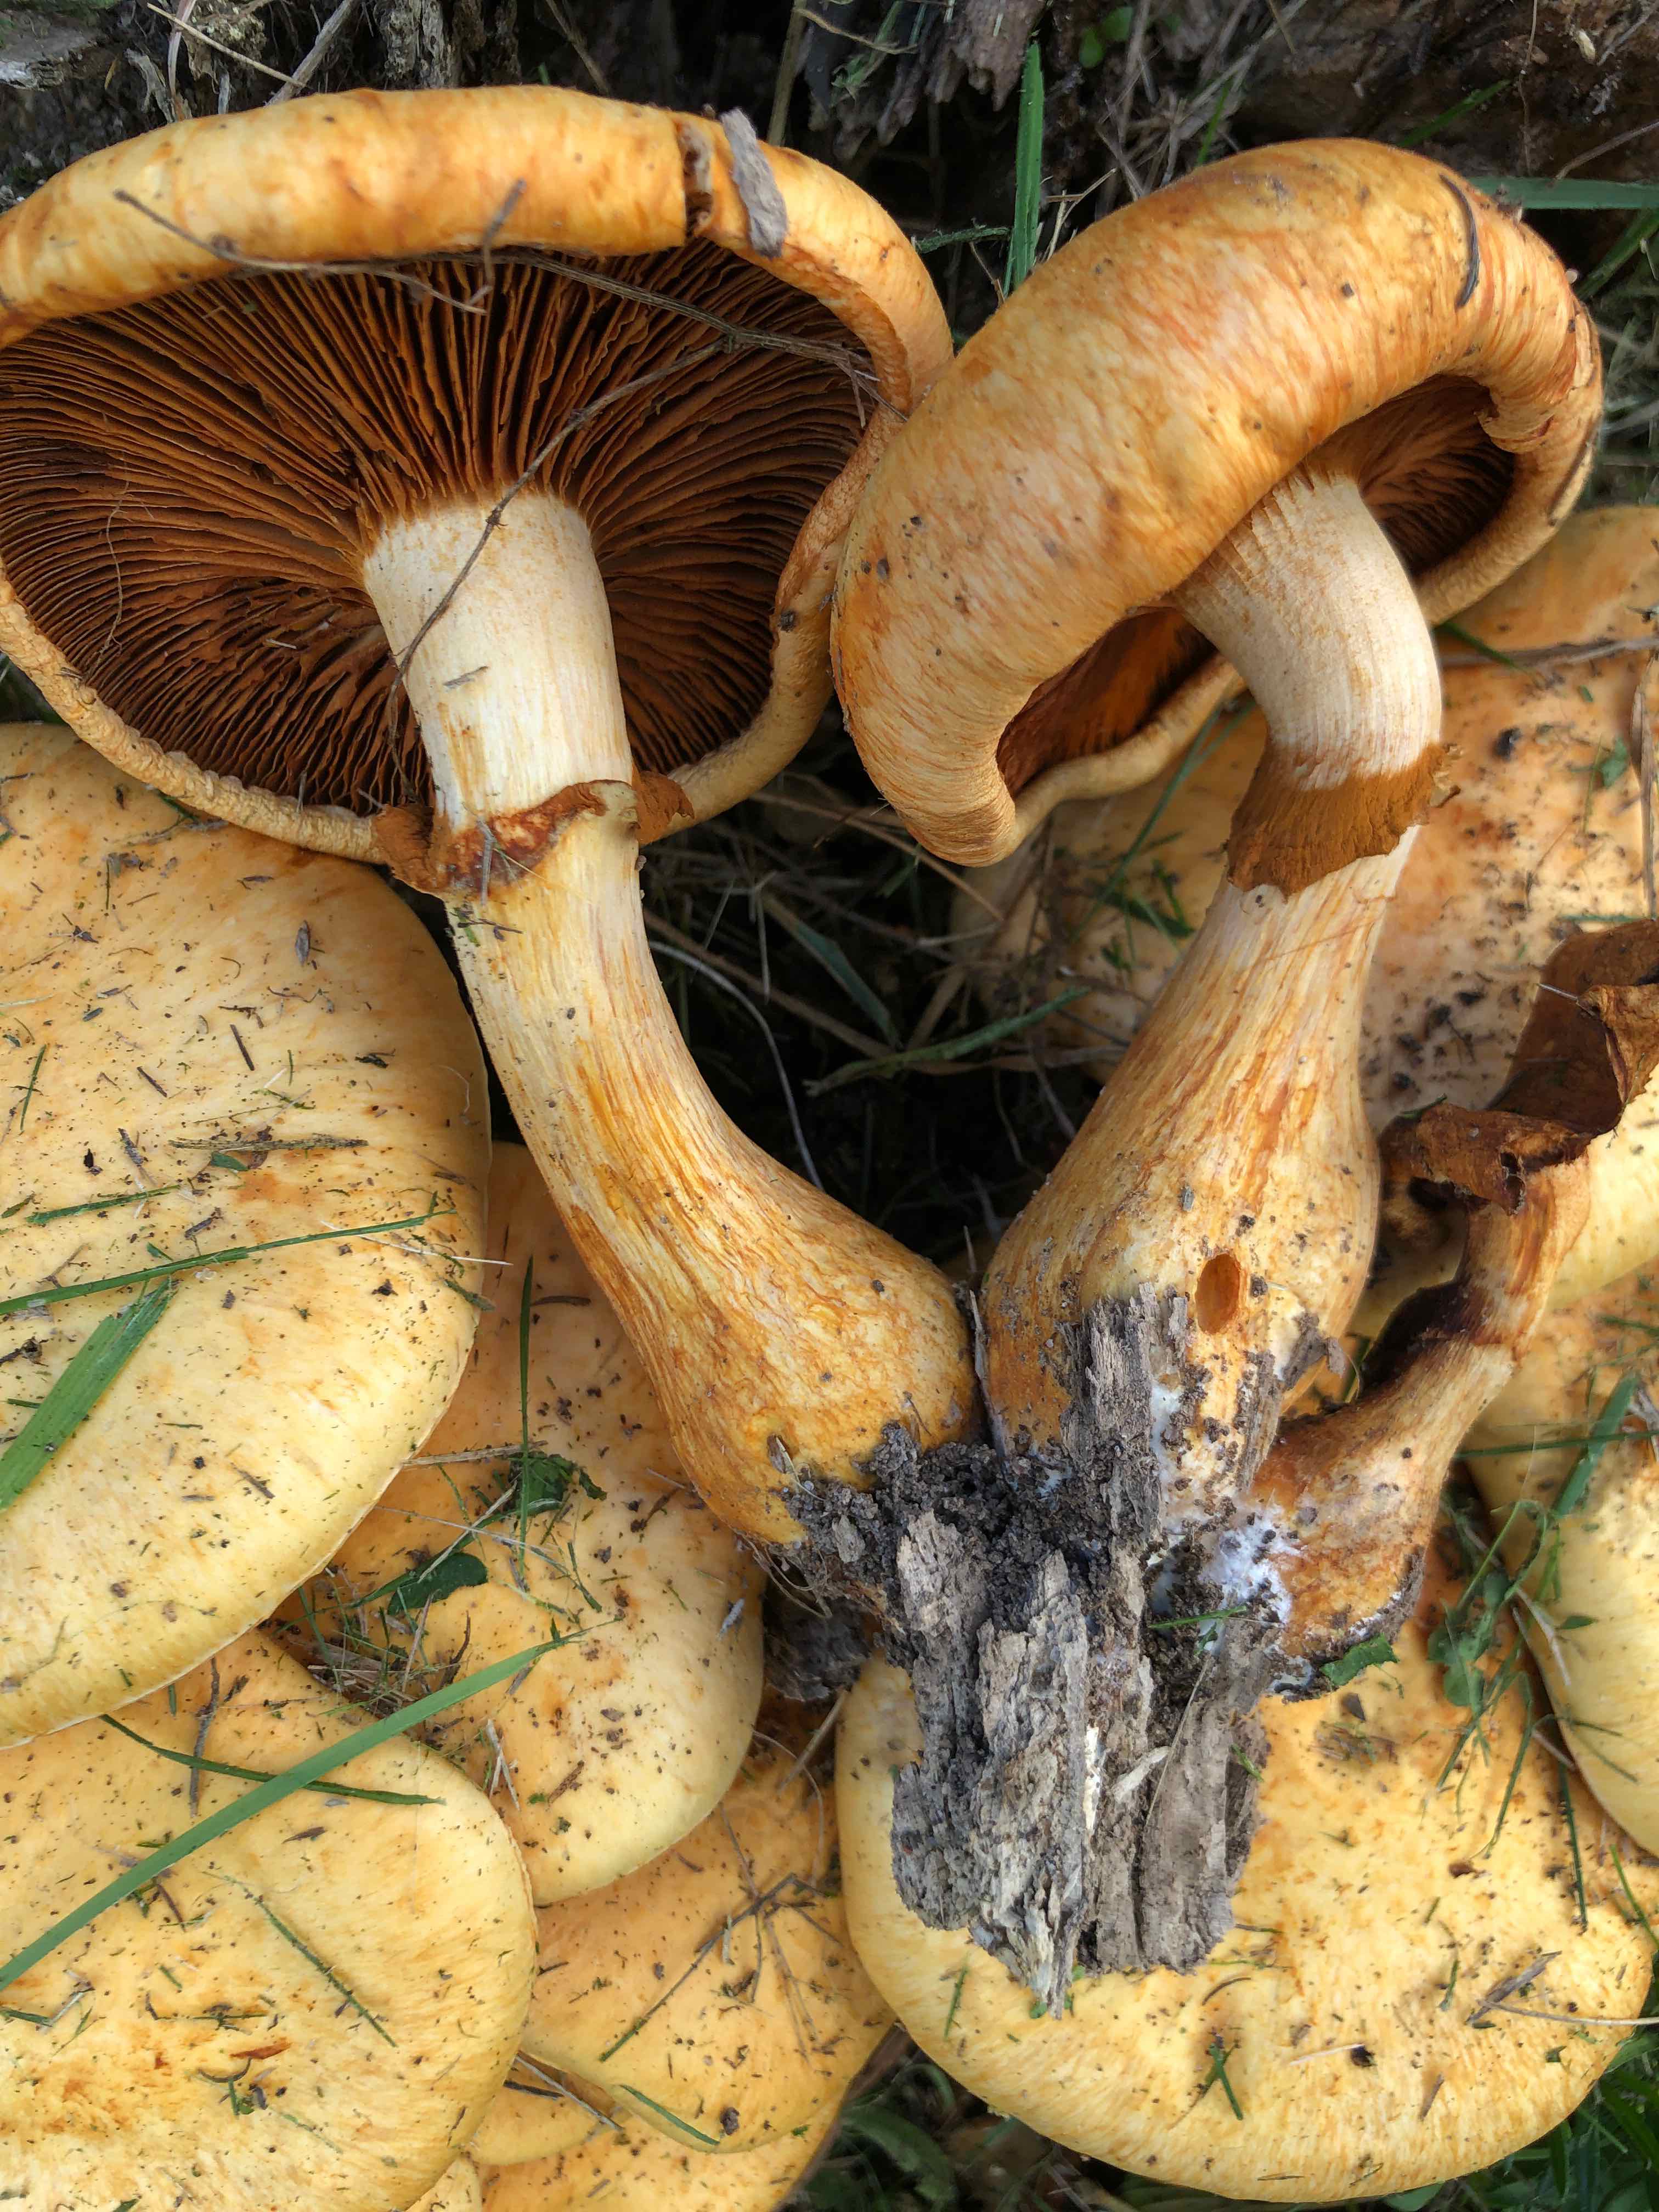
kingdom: Fungi
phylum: Basidiomycota
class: Agaricomycetes
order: Agaricales
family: Hymenogastraceae
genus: Gymnopilus
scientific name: Gymnopilus spectabilis
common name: fibret flammehat
